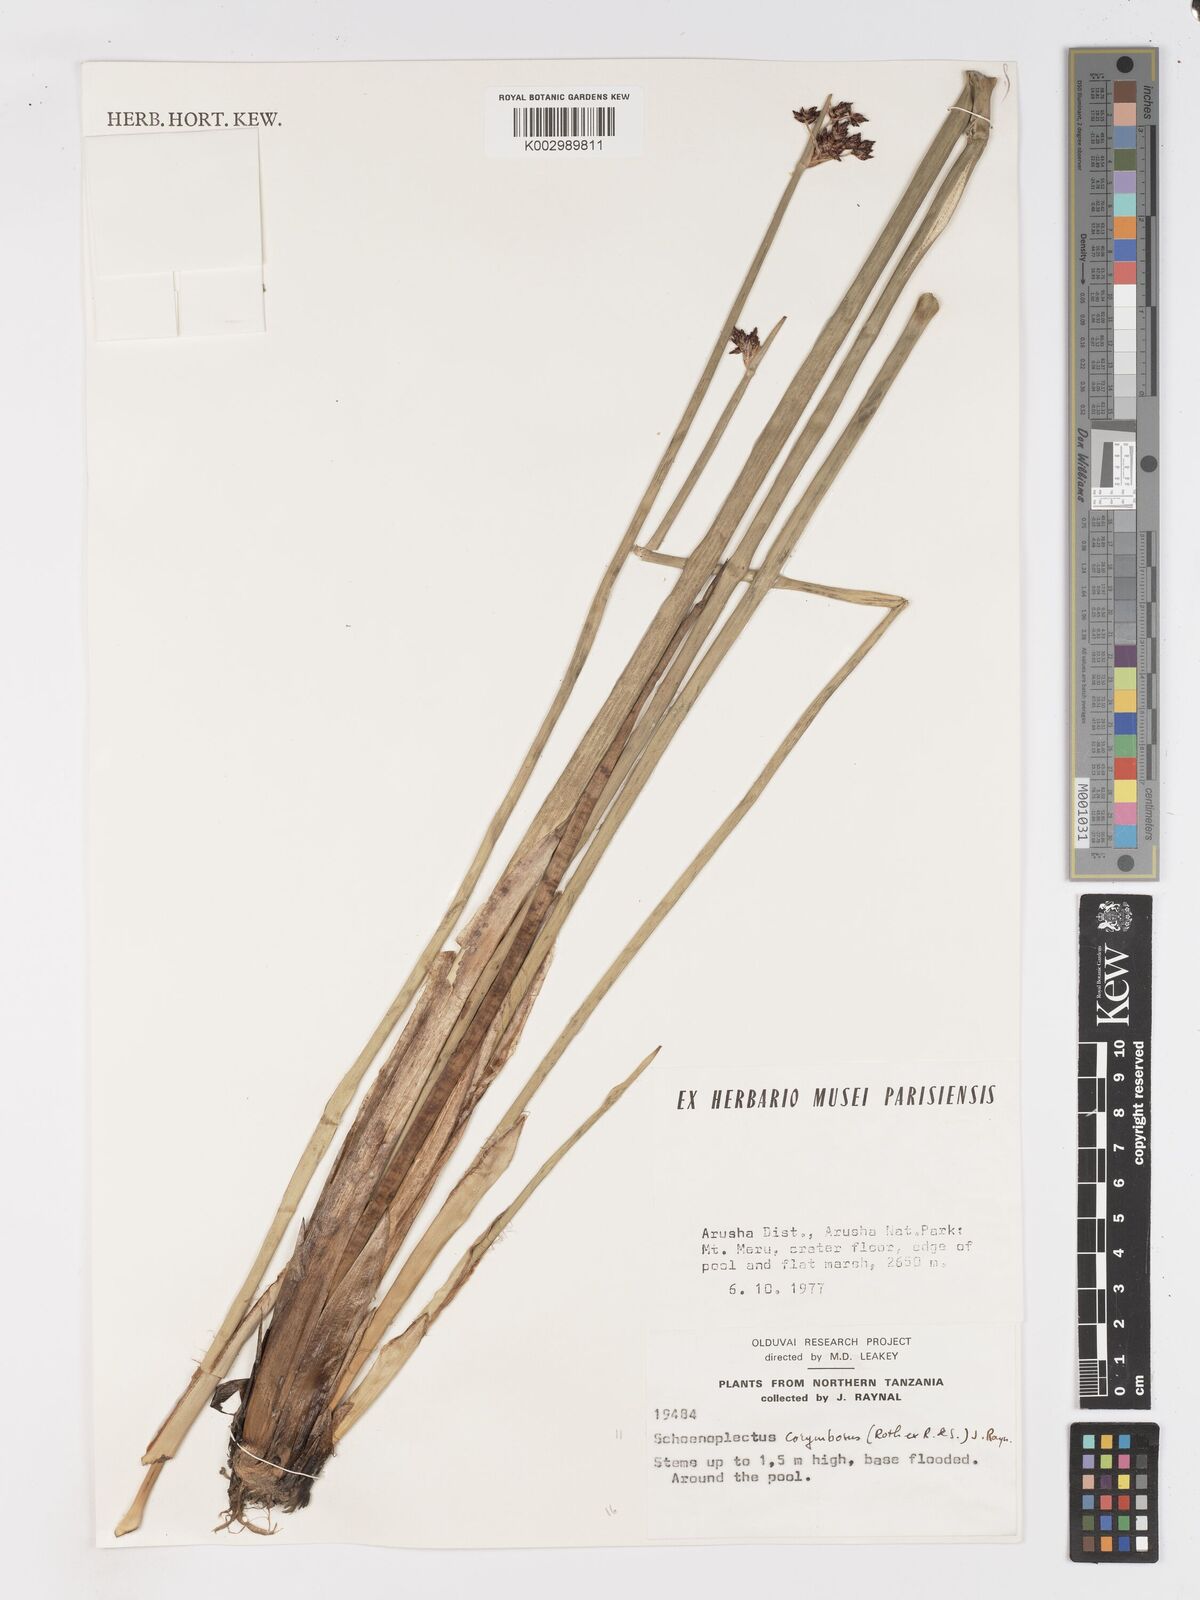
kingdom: Plantae
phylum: Tracheophyta
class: Liliopsida
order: Poales
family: Cyperaceae
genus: Schoenoplectiella
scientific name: Schoenoplectiella brachyceras
